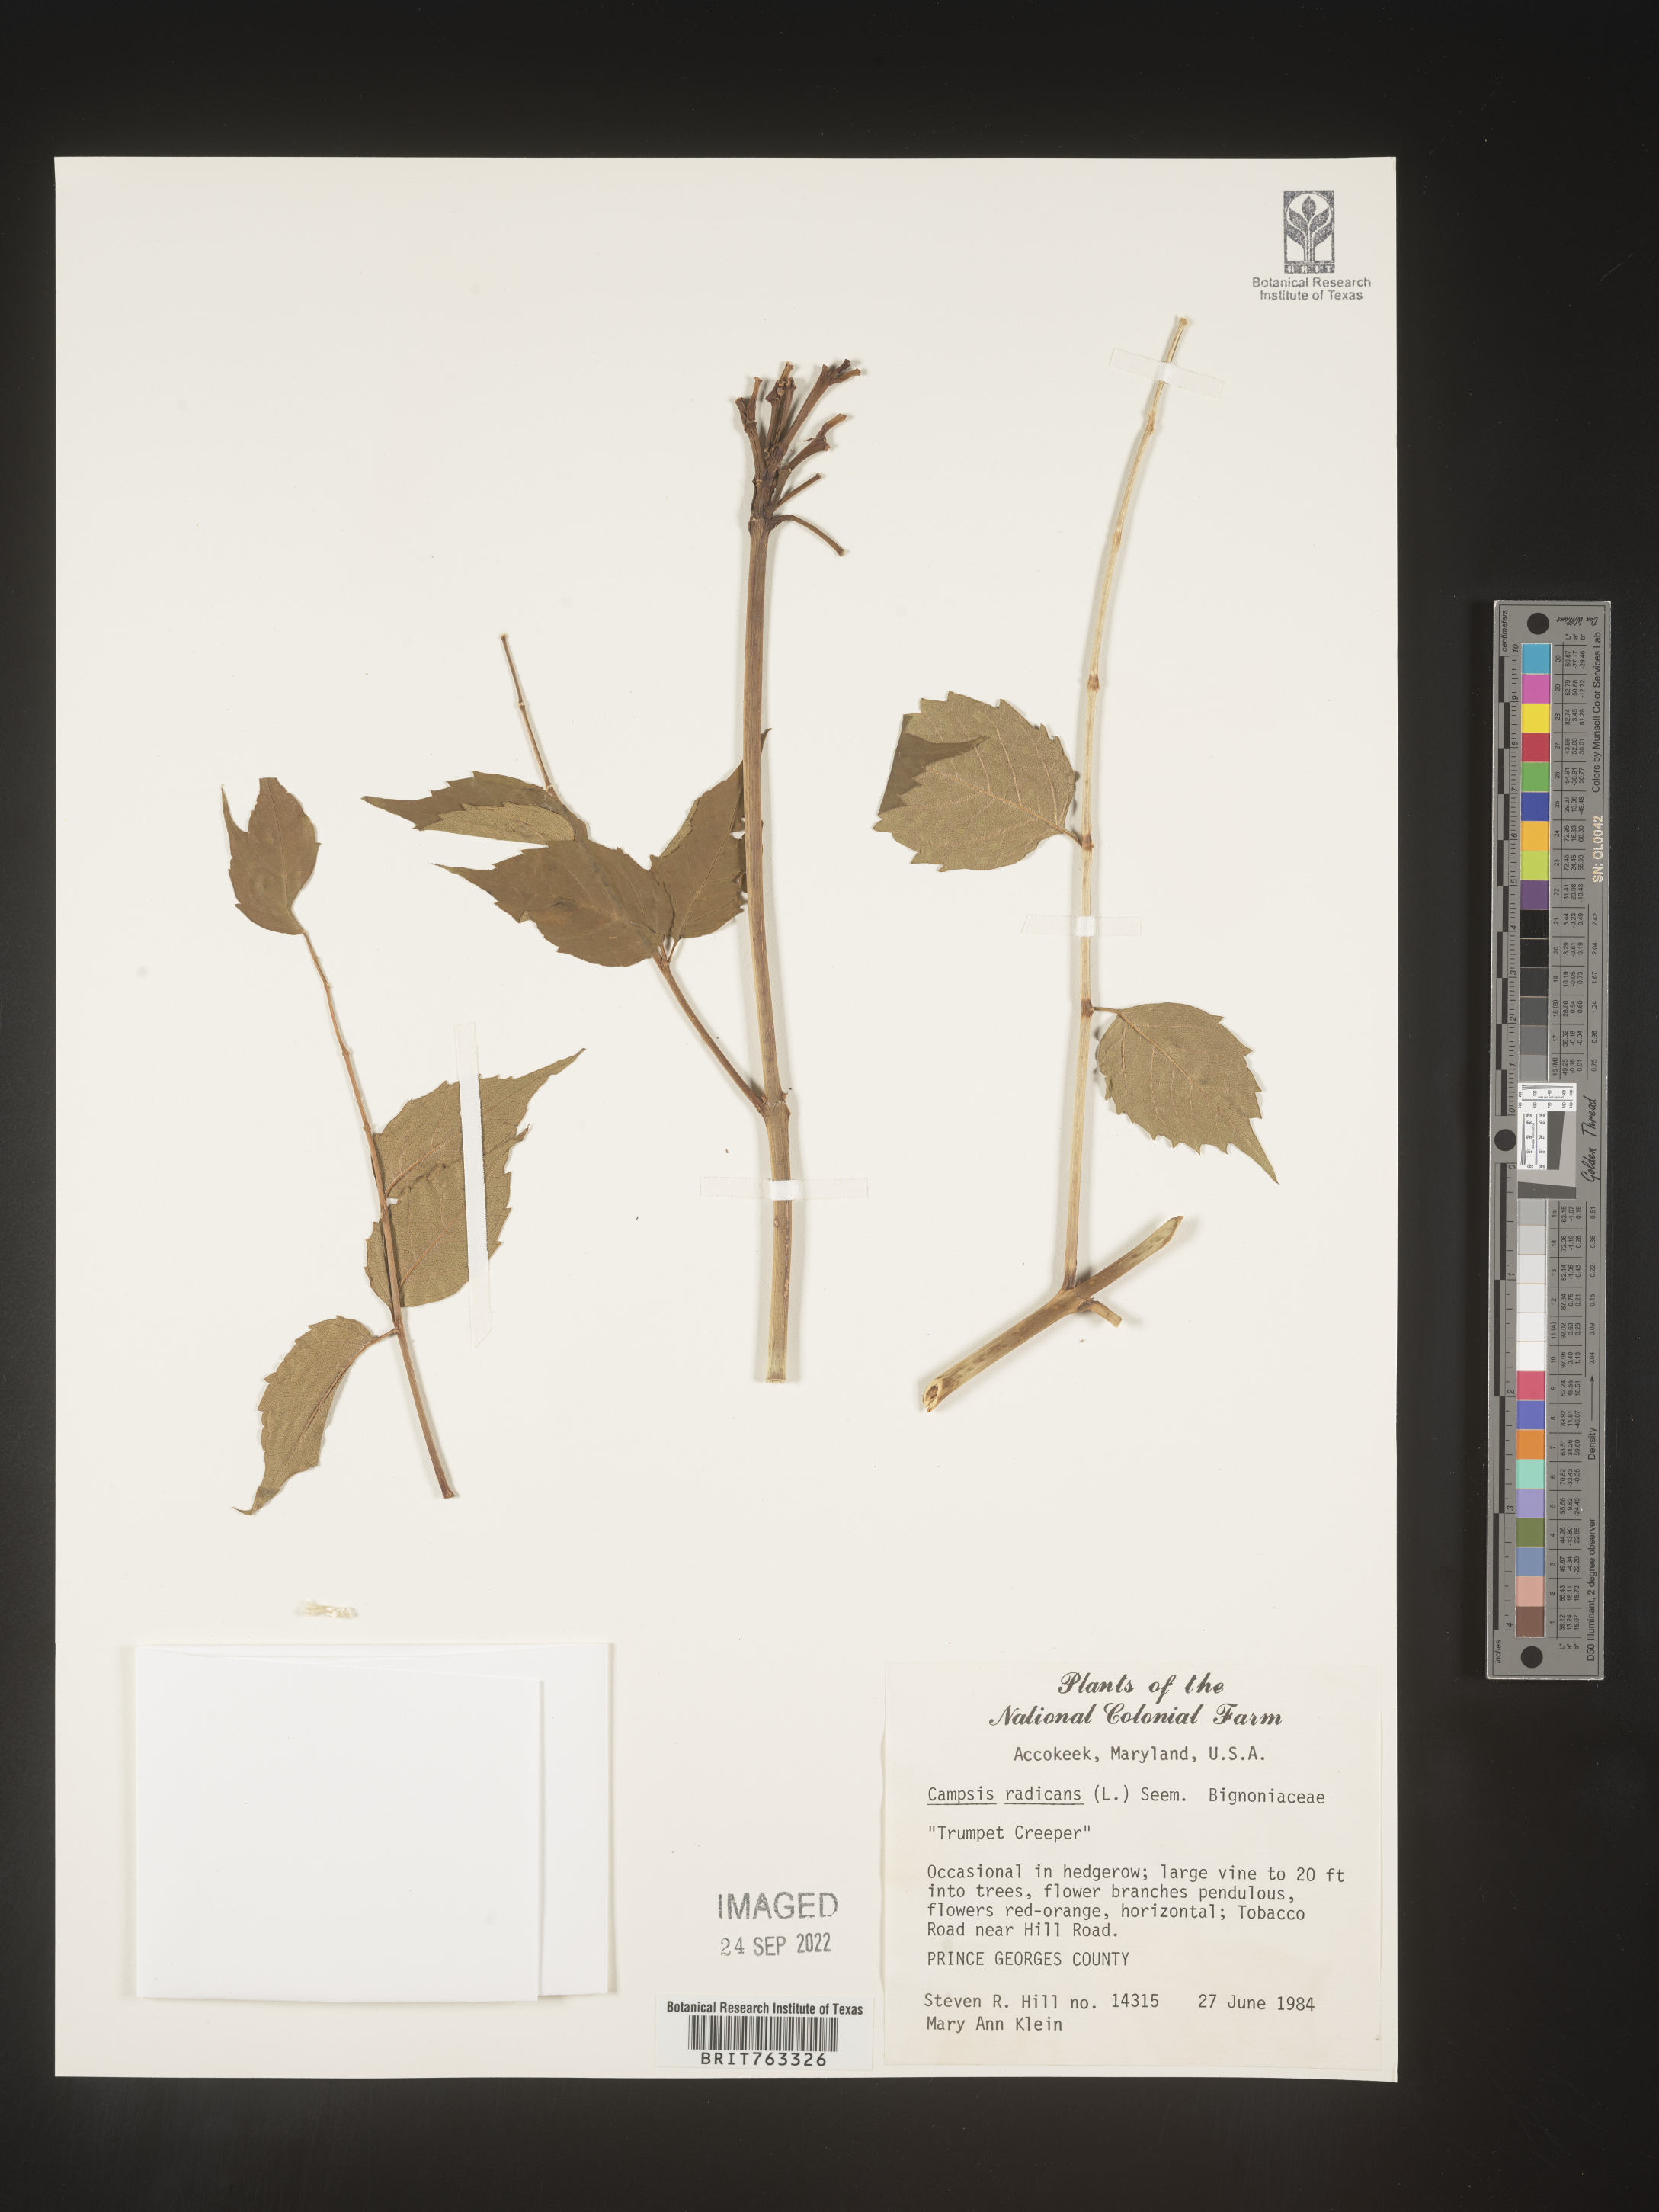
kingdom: Plantae
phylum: Tracheophyta
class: Magnoliopsida
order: Lamiales
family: Bignoniaceae
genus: Campsis
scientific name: Campsis radicans
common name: Trumpet-creeper
